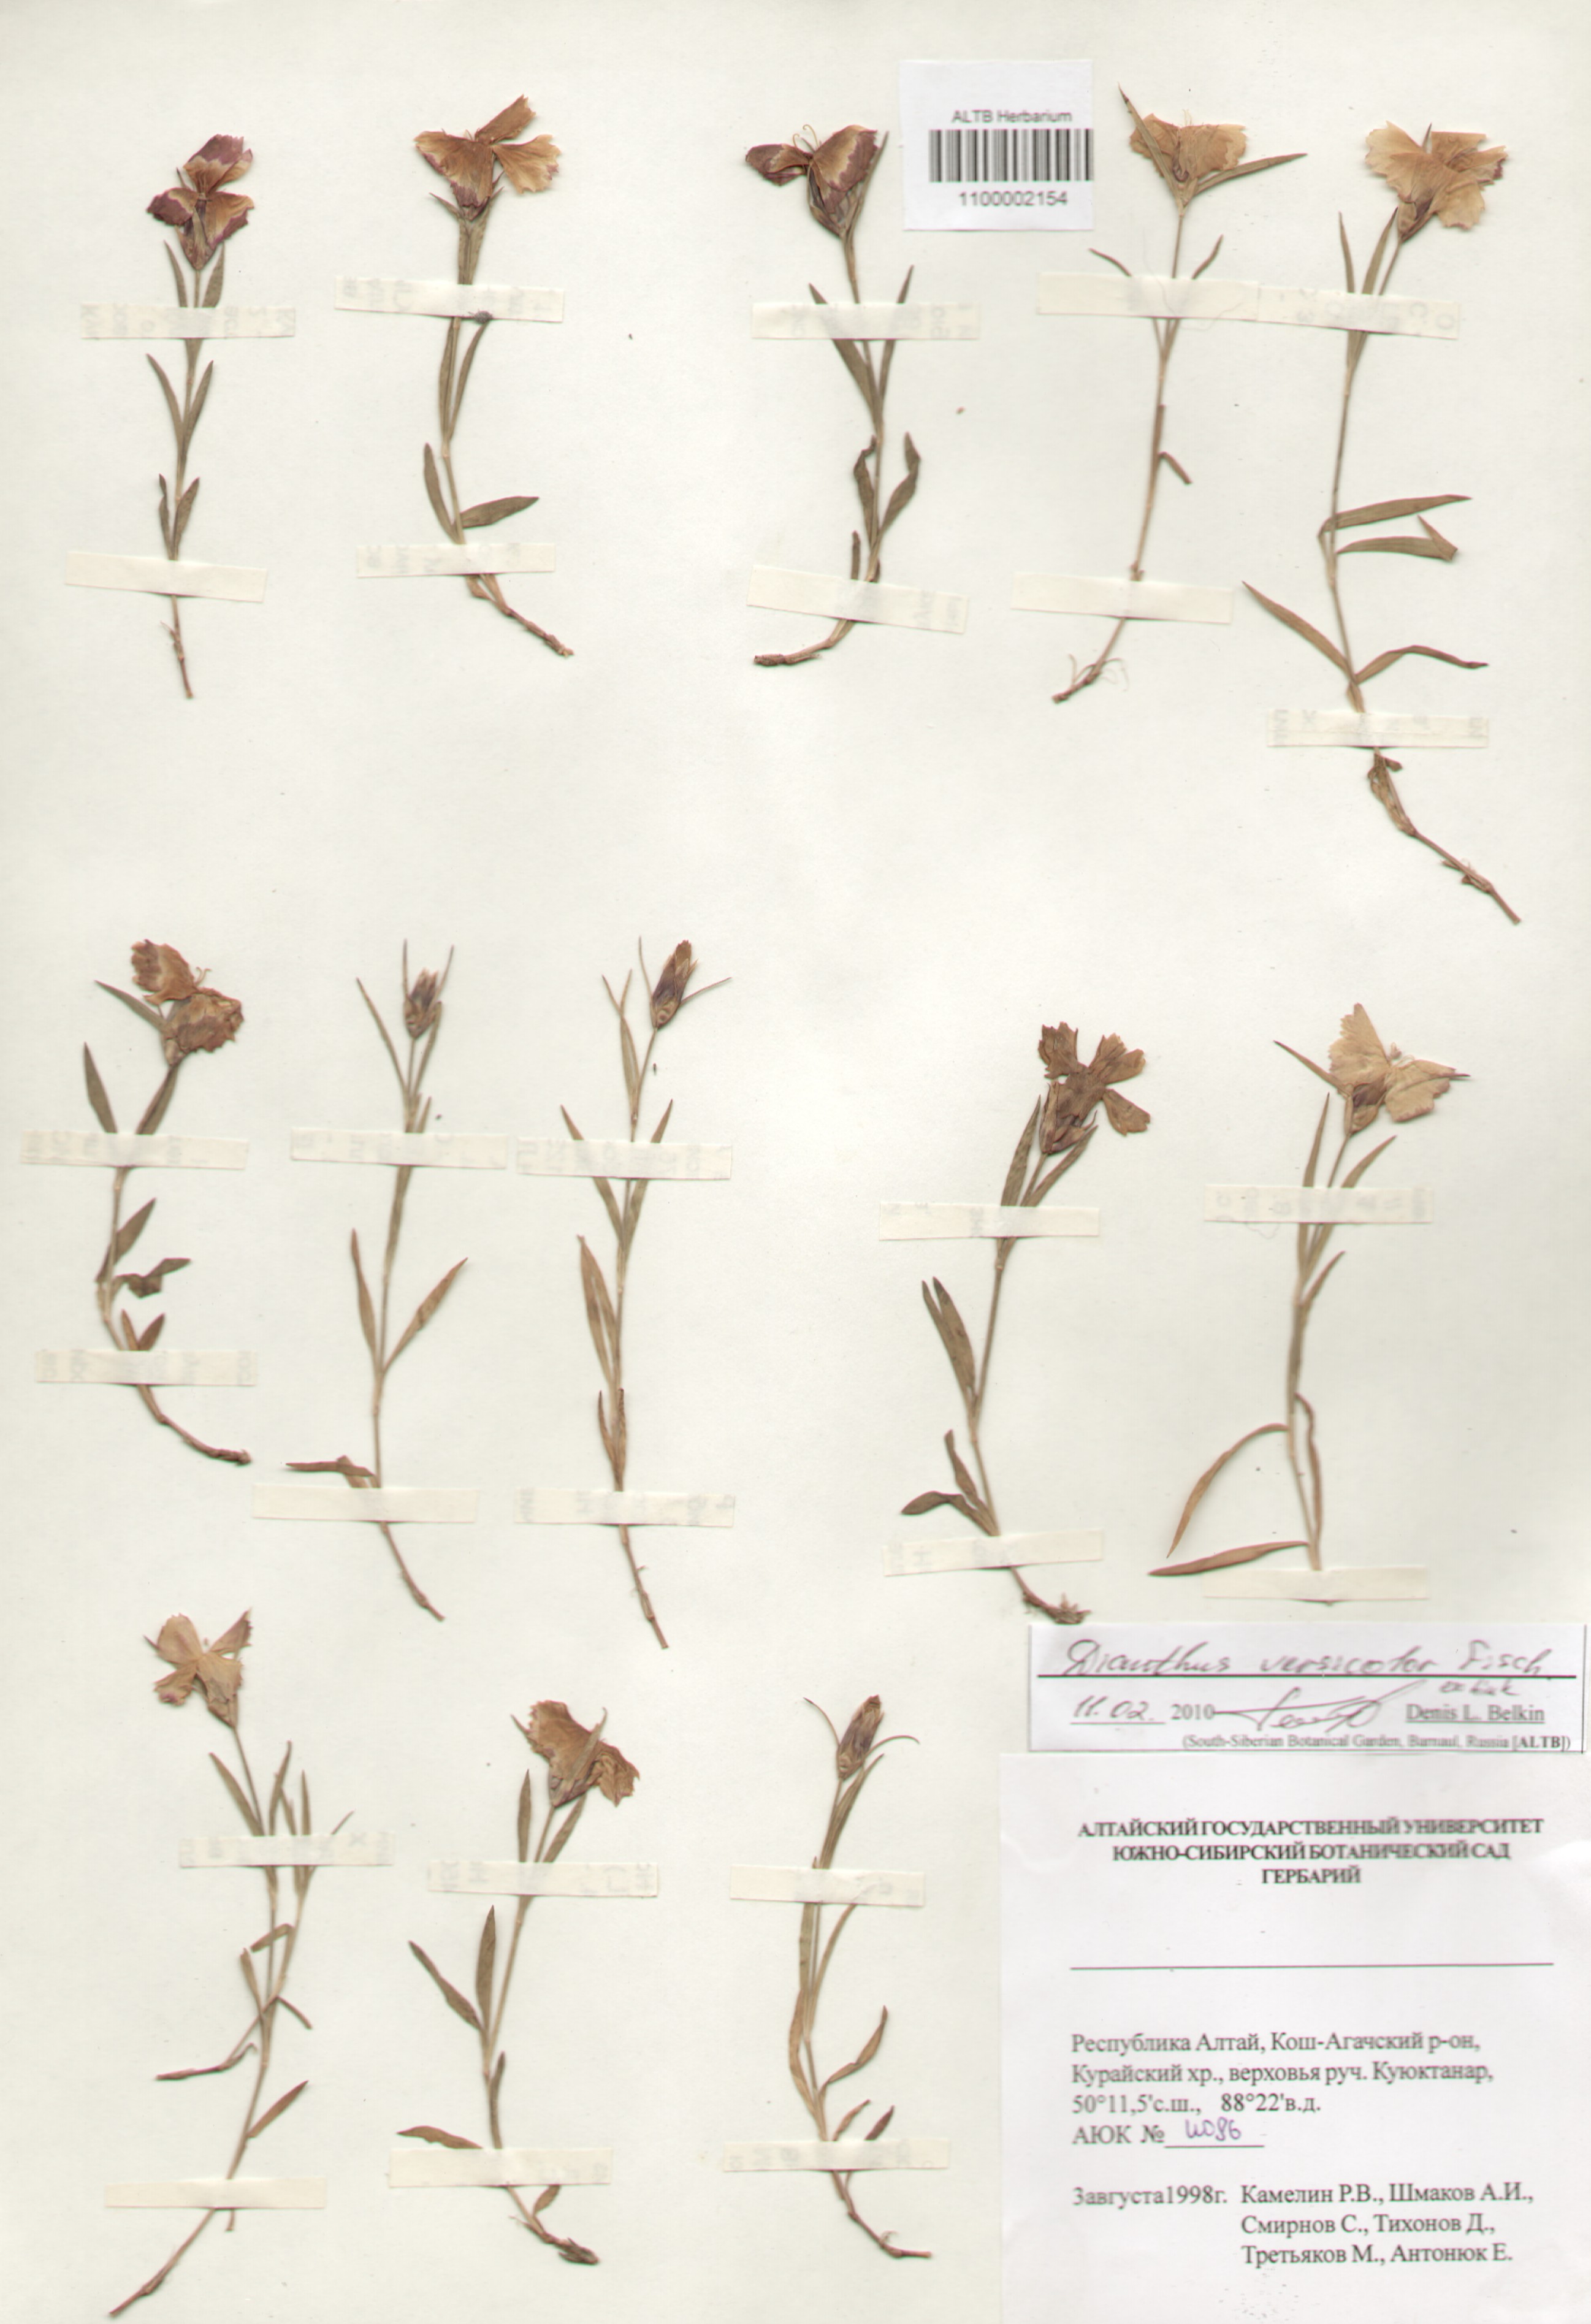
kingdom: Plantae
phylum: Tracheophyta
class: Magnoliopsida
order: Caryophyllales
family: Caryophyllaceae
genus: Dianthus
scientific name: Dianthus chinensis
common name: Rainbow pink
